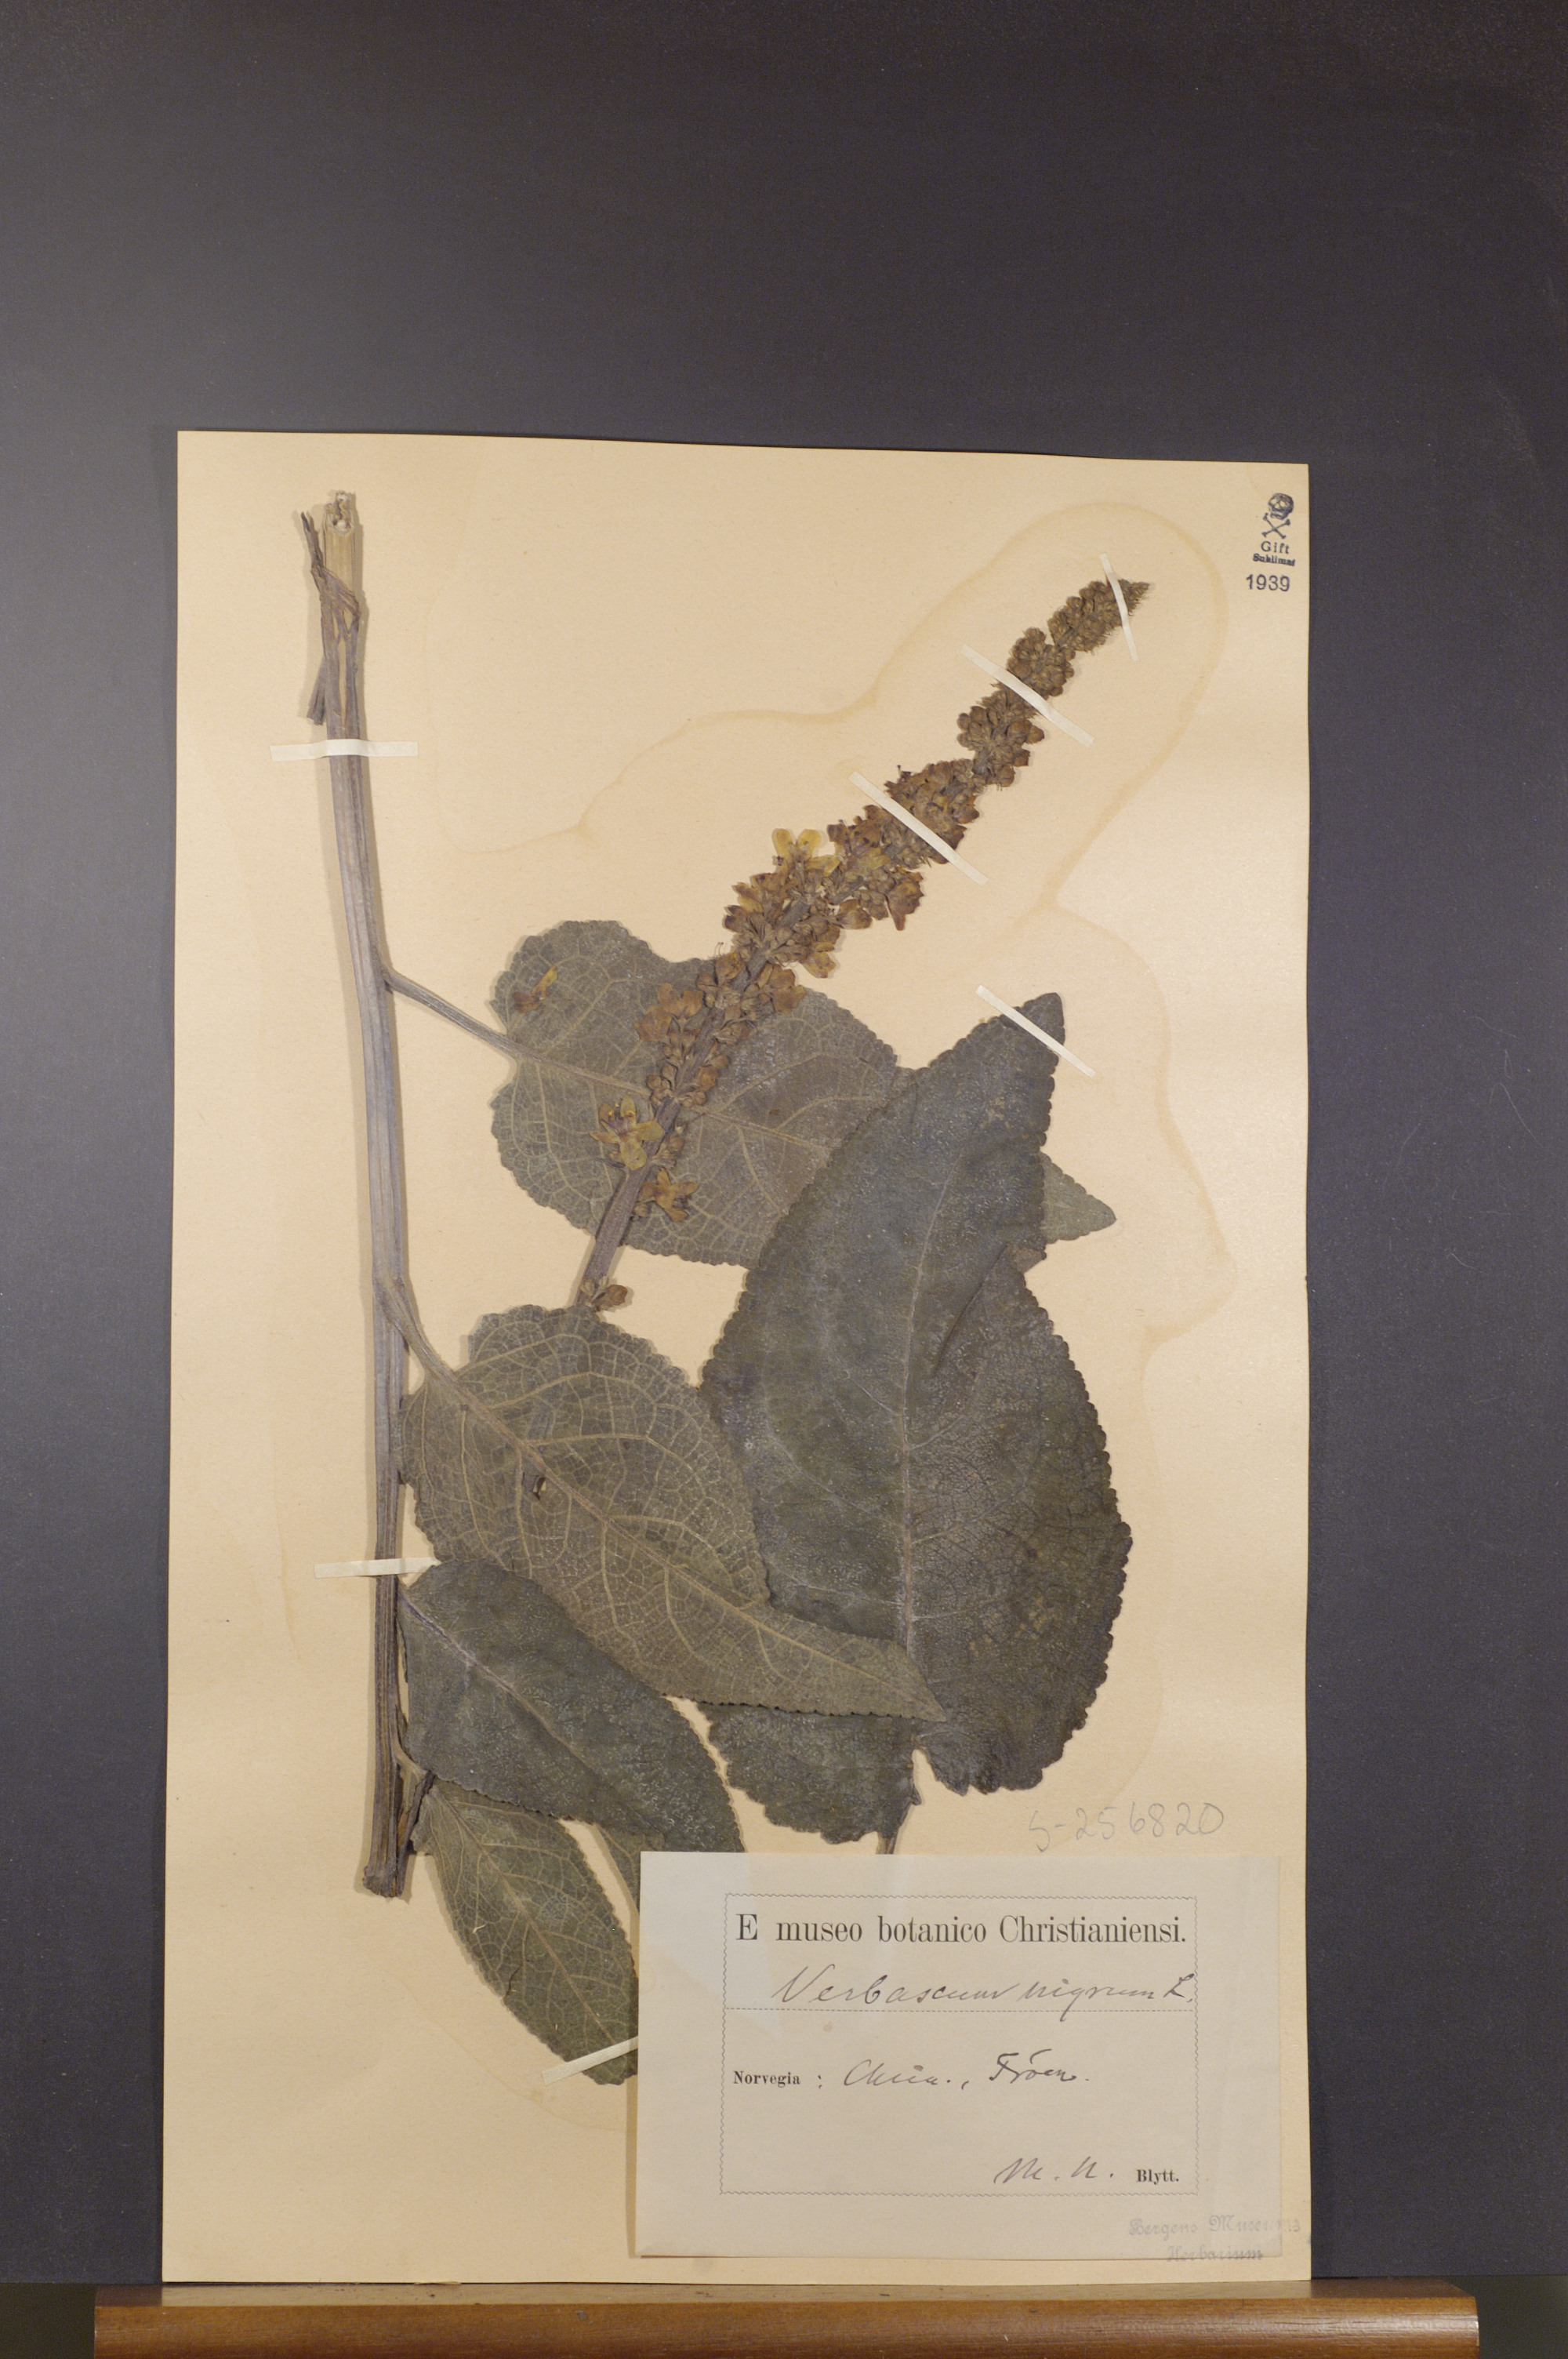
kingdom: Plantae
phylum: Tracheophyta
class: Magnoliopsida
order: Lamiales
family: Scrophulariaceae
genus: Verbascum
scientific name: Verbascum nigrum
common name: Dark mullein
